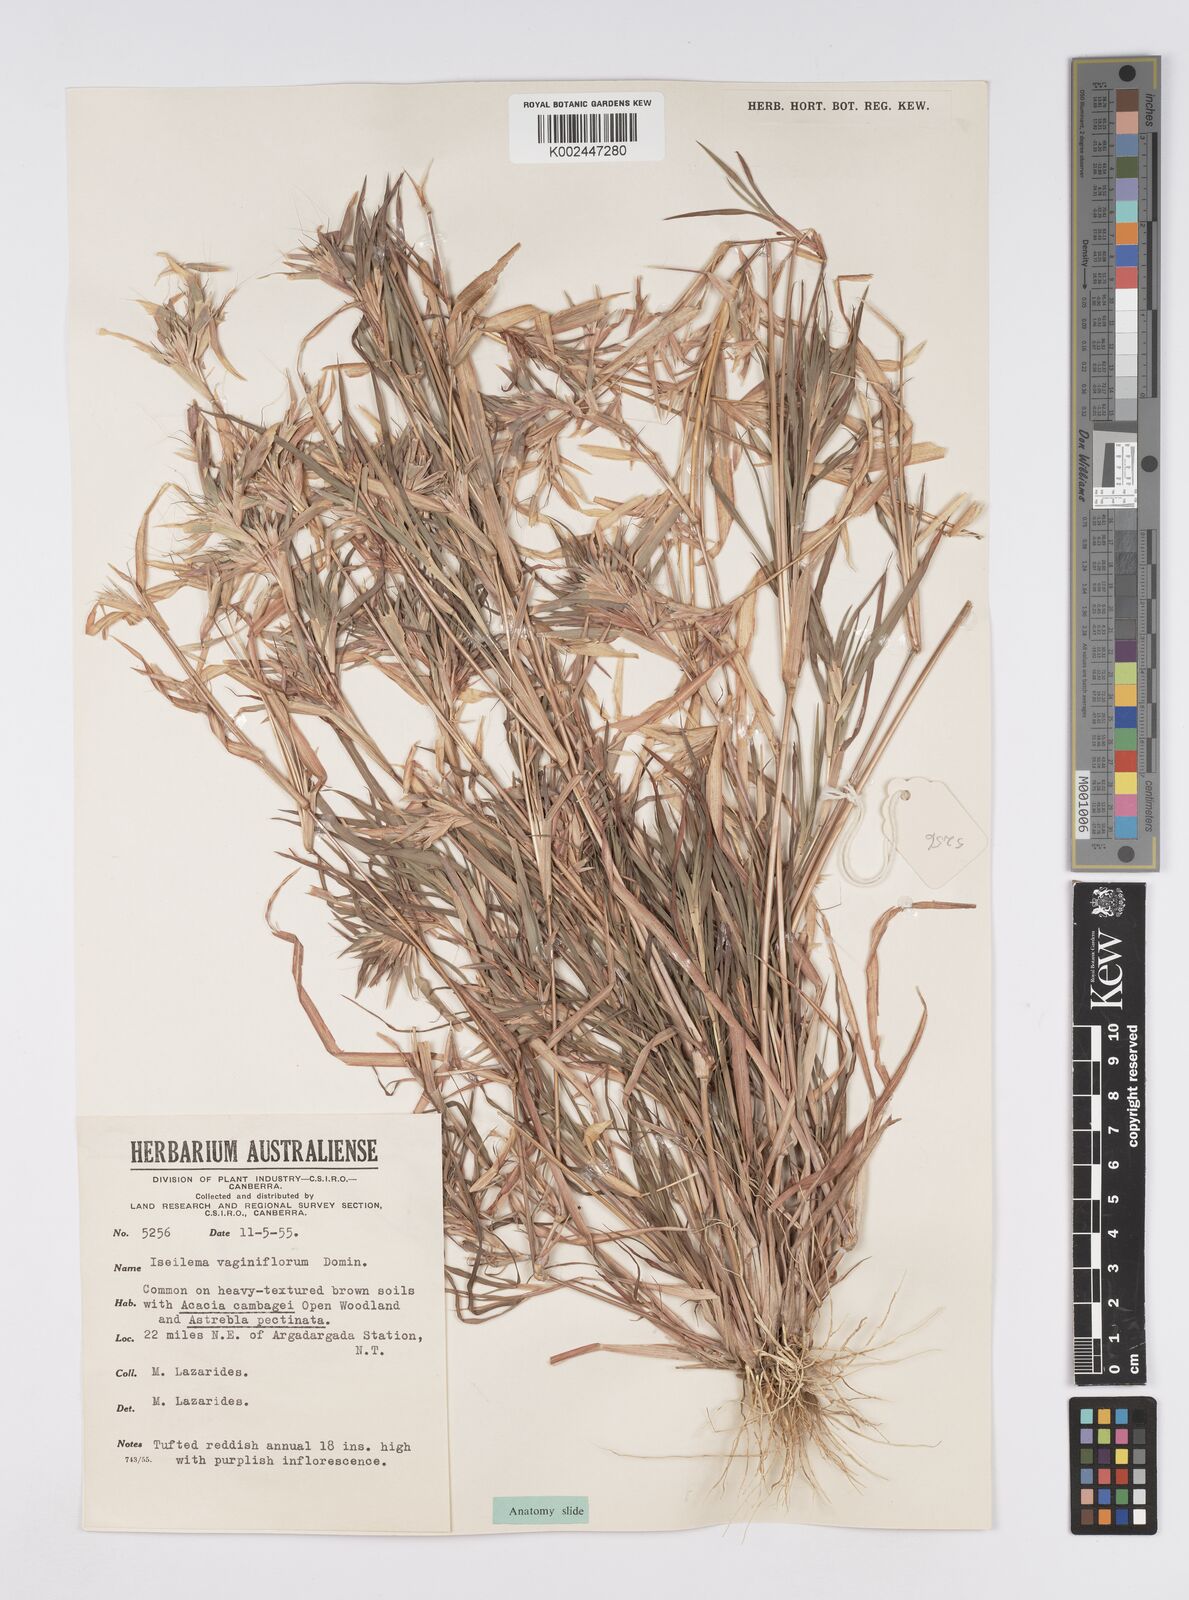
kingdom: Plantae
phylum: Tracheophyta
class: Liliopsida
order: Poales
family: Poaceae
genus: Iseilema
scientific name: Iseilema vaginiflorum
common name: Red flinders grass
